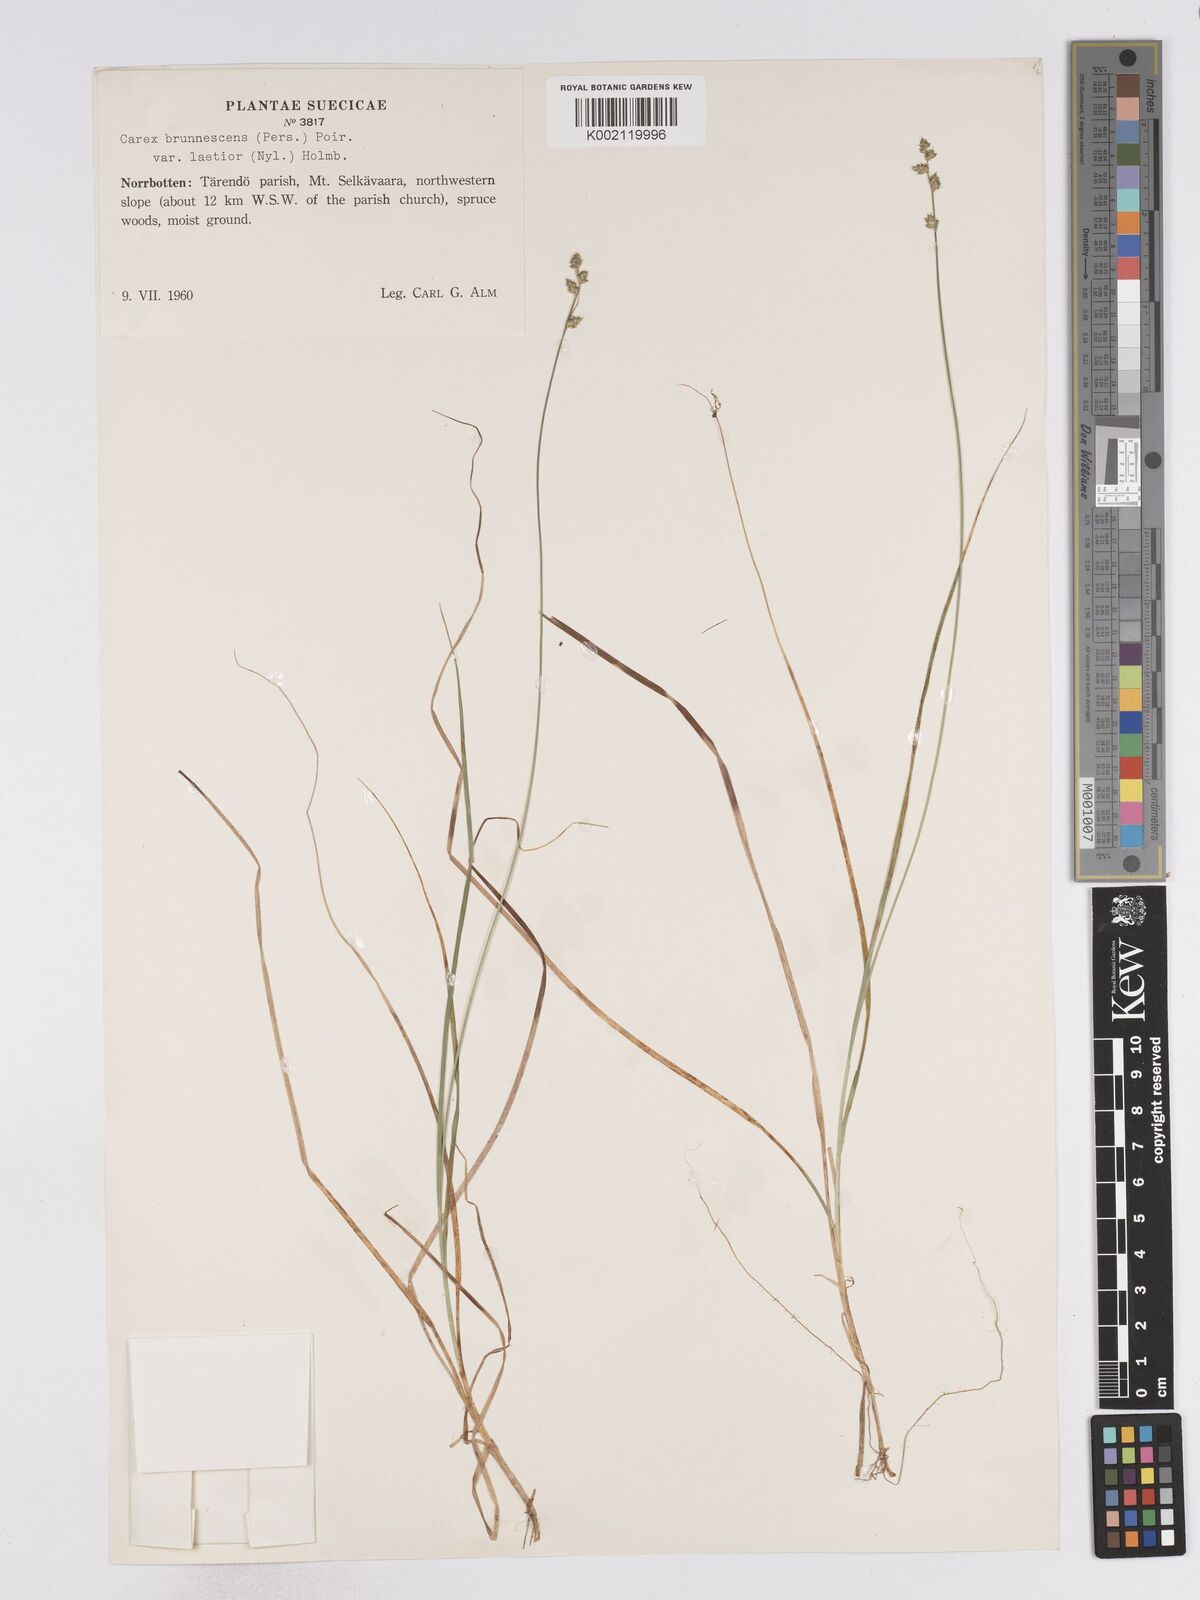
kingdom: Plantae
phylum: Tracheophyta
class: Liliopsida
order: Poales
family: Cyperaceae
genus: Carex
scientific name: Carex brunnescens
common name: Brown sedge
